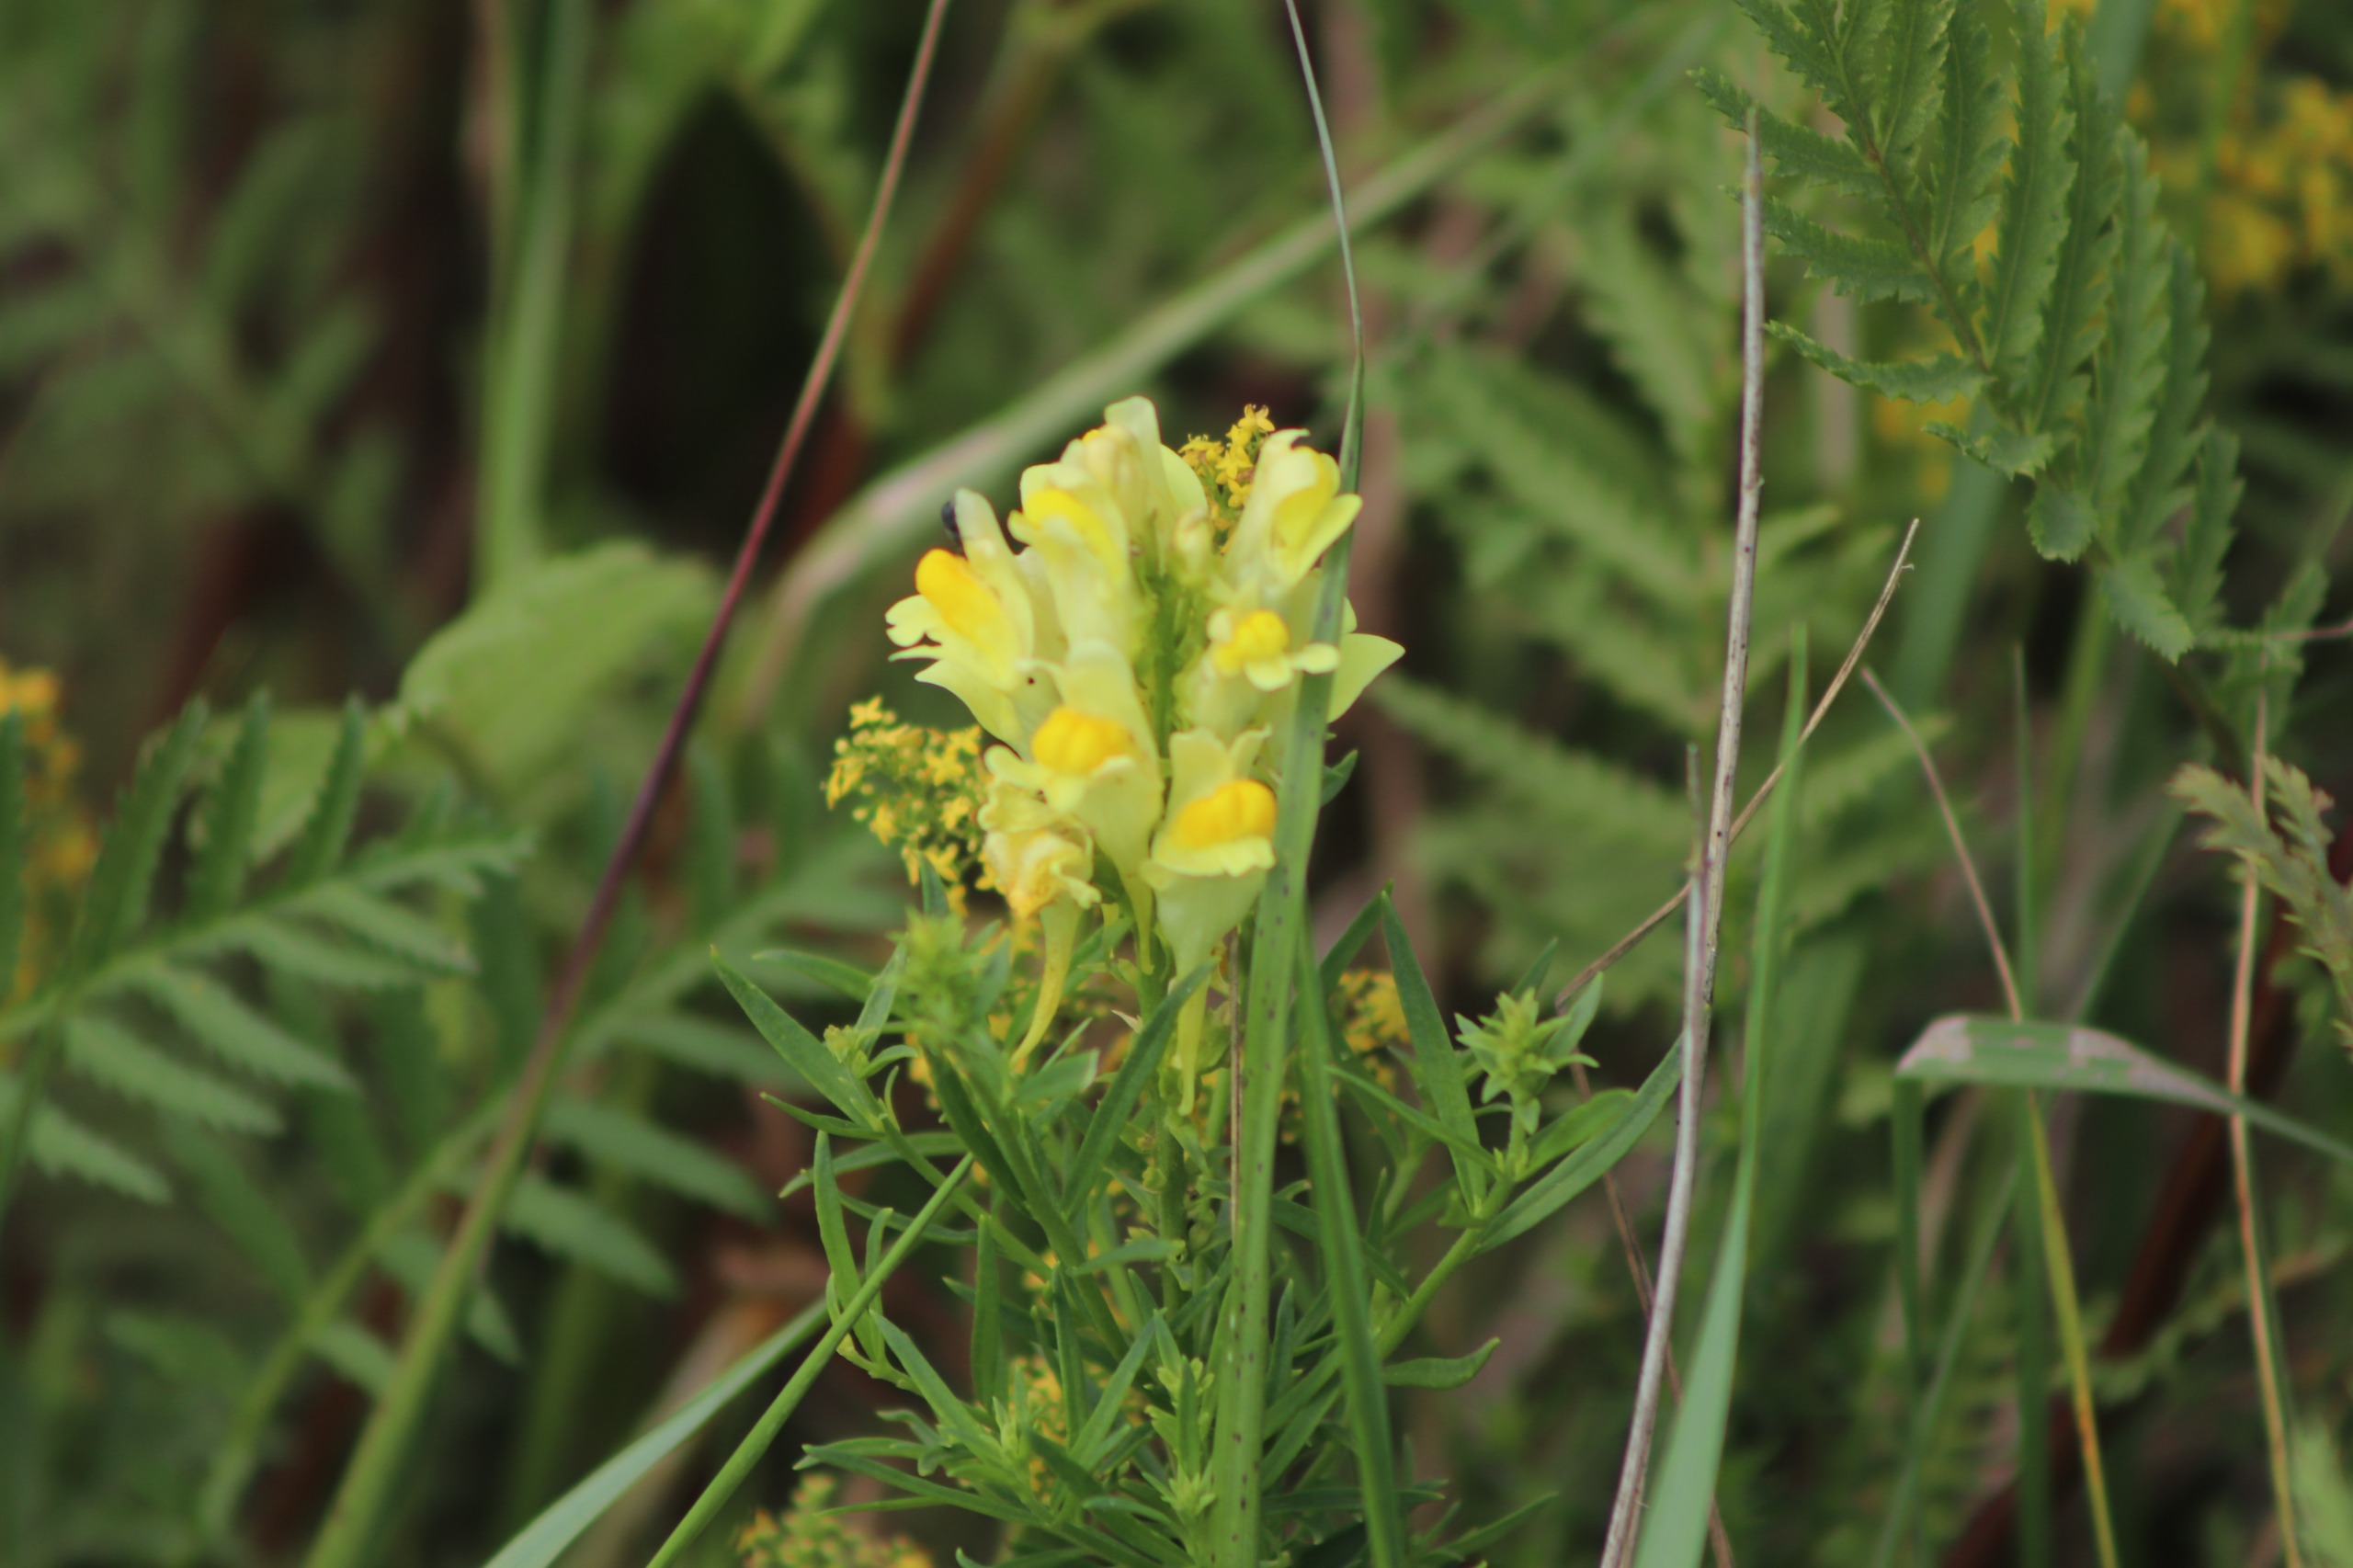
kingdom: Plantae
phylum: Tracheophyta
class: Magnoliopsida
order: Lamiales
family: Plantaginaceae
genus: Linaria
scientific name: Linaria vulgaris
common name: Almindelig torskemund
